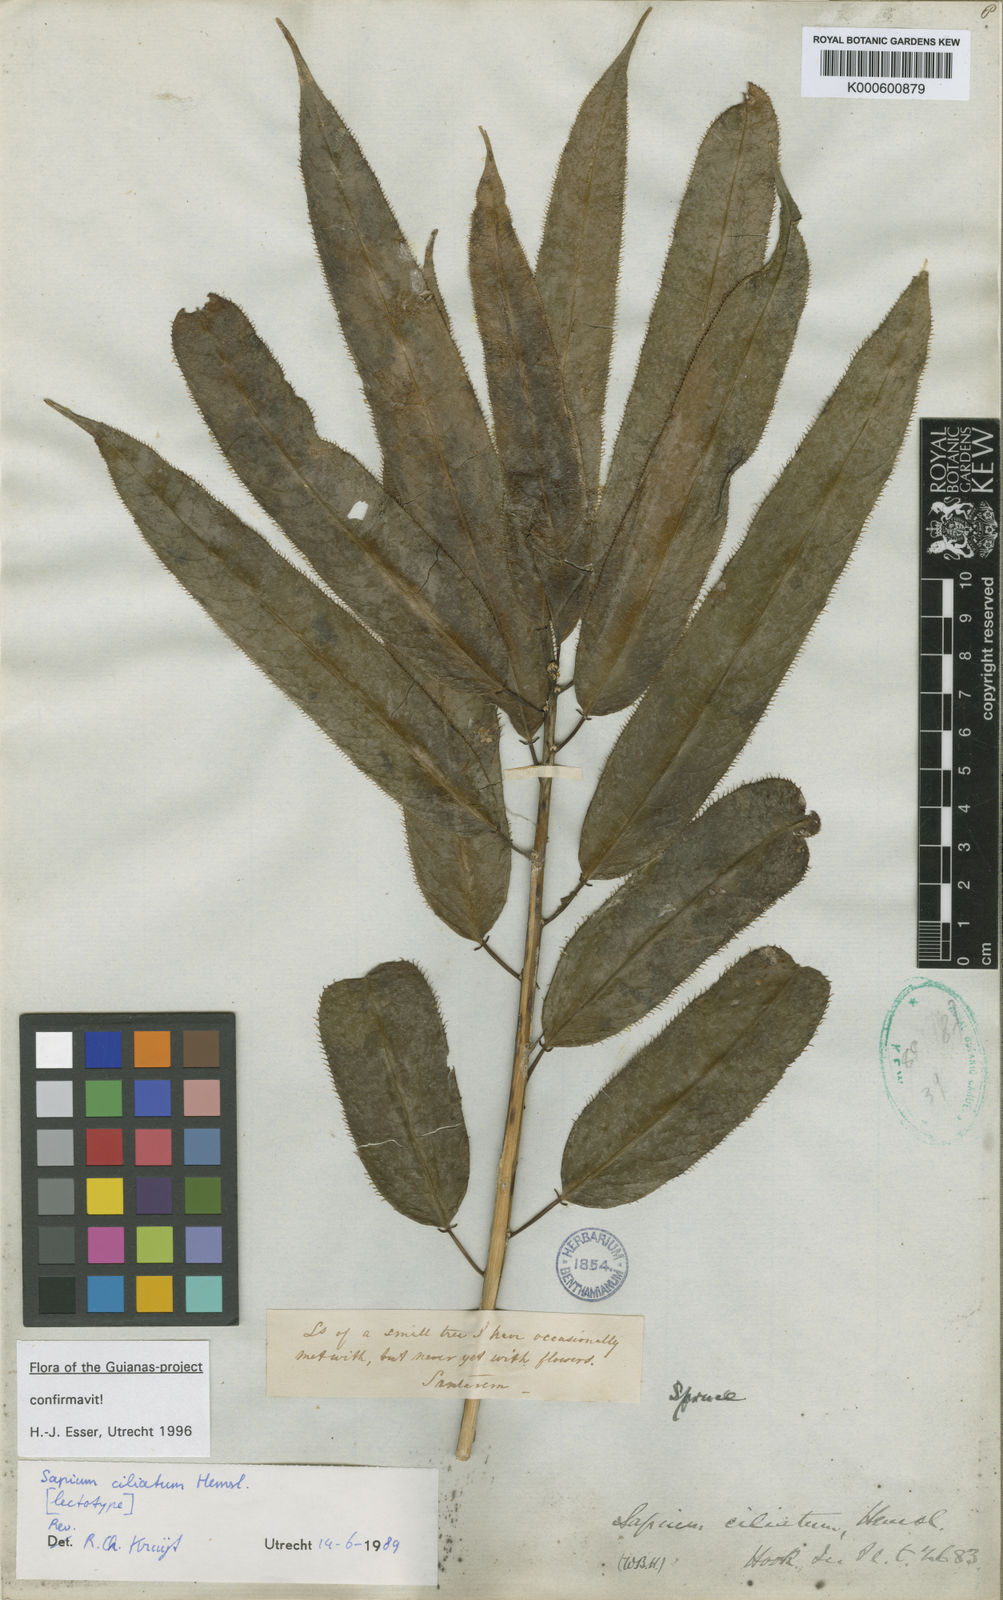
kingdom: Plantae
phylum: Tracheophyta
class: Magnoliopsida
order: Malpighiales
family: Euphorbiaceae
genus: Sapium
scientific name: Sapium ciliatum
